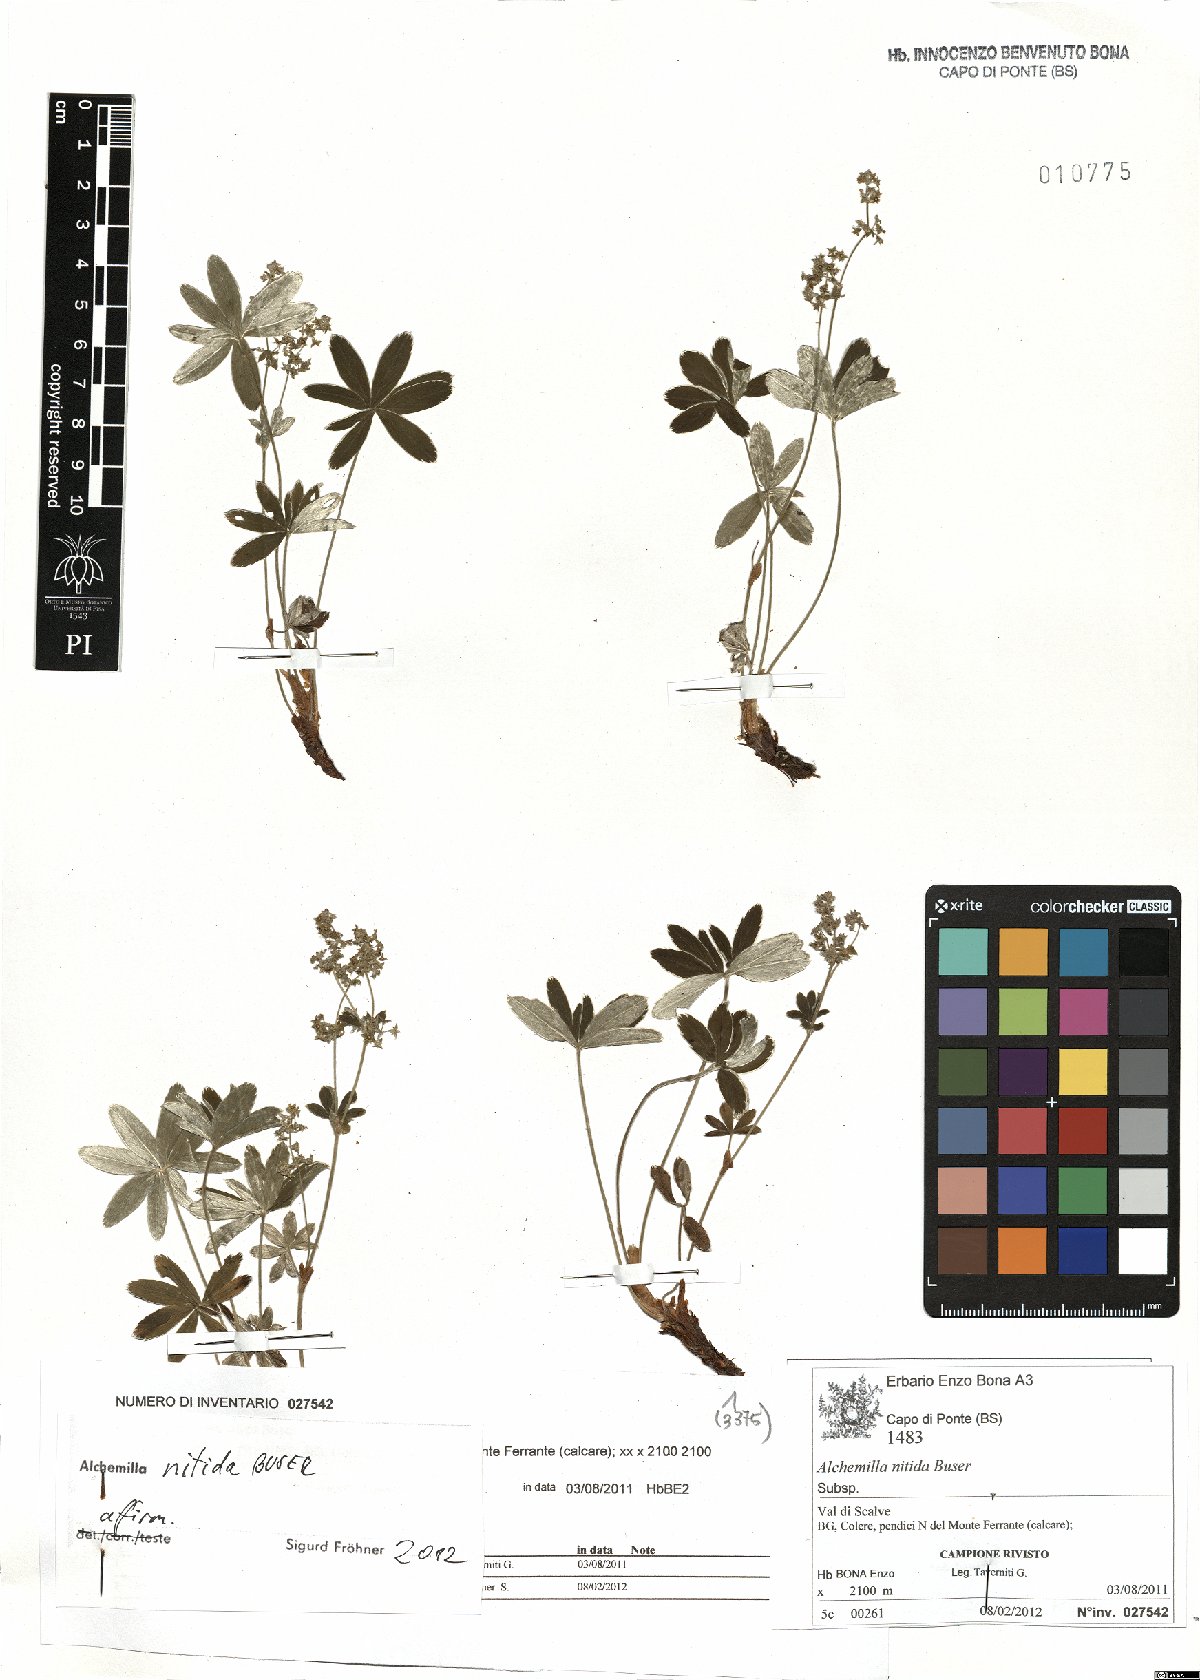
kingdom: Plantae
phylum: Tracheophyta
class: Magnoliopsida
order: Rosales
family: Rosaceae
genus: Alchemilla
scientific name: Alchemilla nitida
